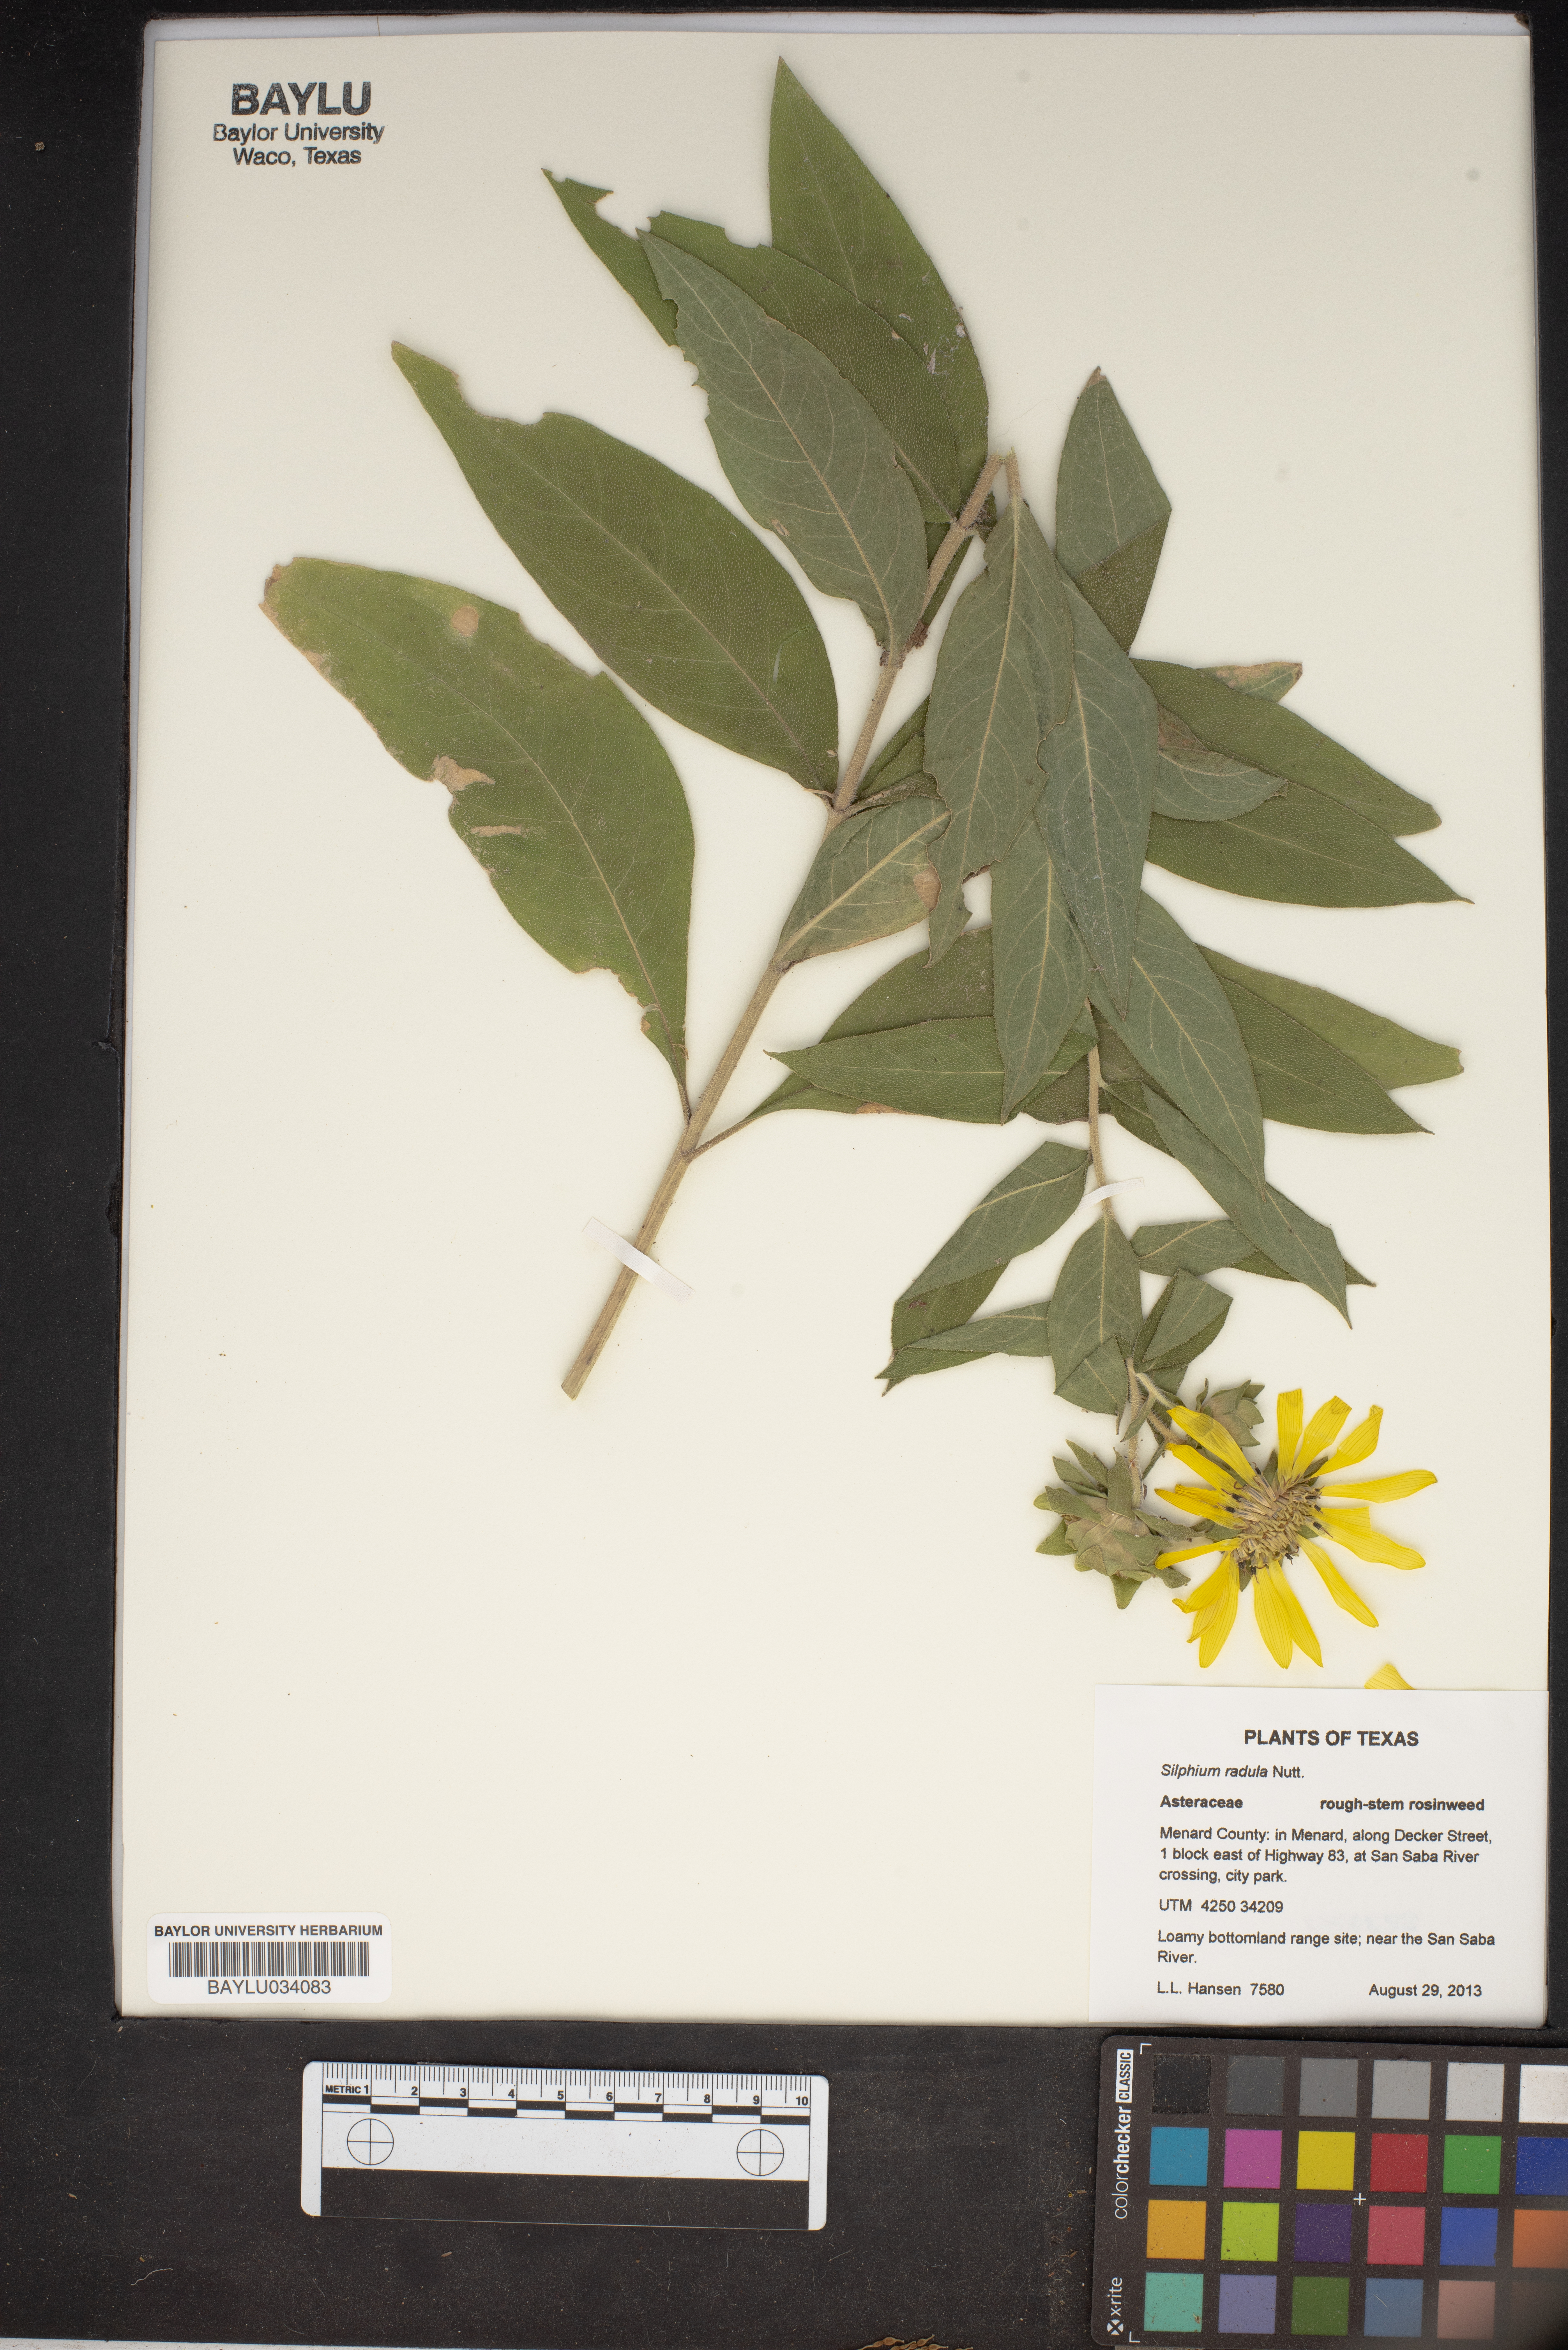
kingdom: Plantae
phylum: Tracheophyta
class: Magnoliopsida
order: Asterales
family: Asteraceae
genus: Silphium
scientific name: Silphium radula
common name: Roughleaf rosinweed
